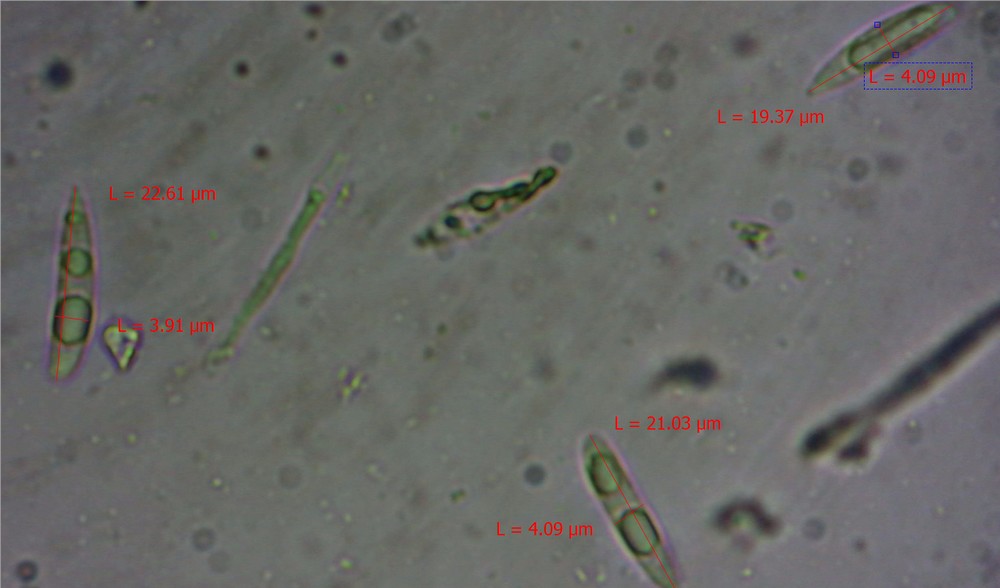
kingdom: Fungi
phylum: Ascomycota
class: Leotiomycetes
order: Helotiales
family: Helotiaceae
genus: Hymenoscyphus
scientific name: Hymenoscyphus scutula
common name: almindelig stilkskive
